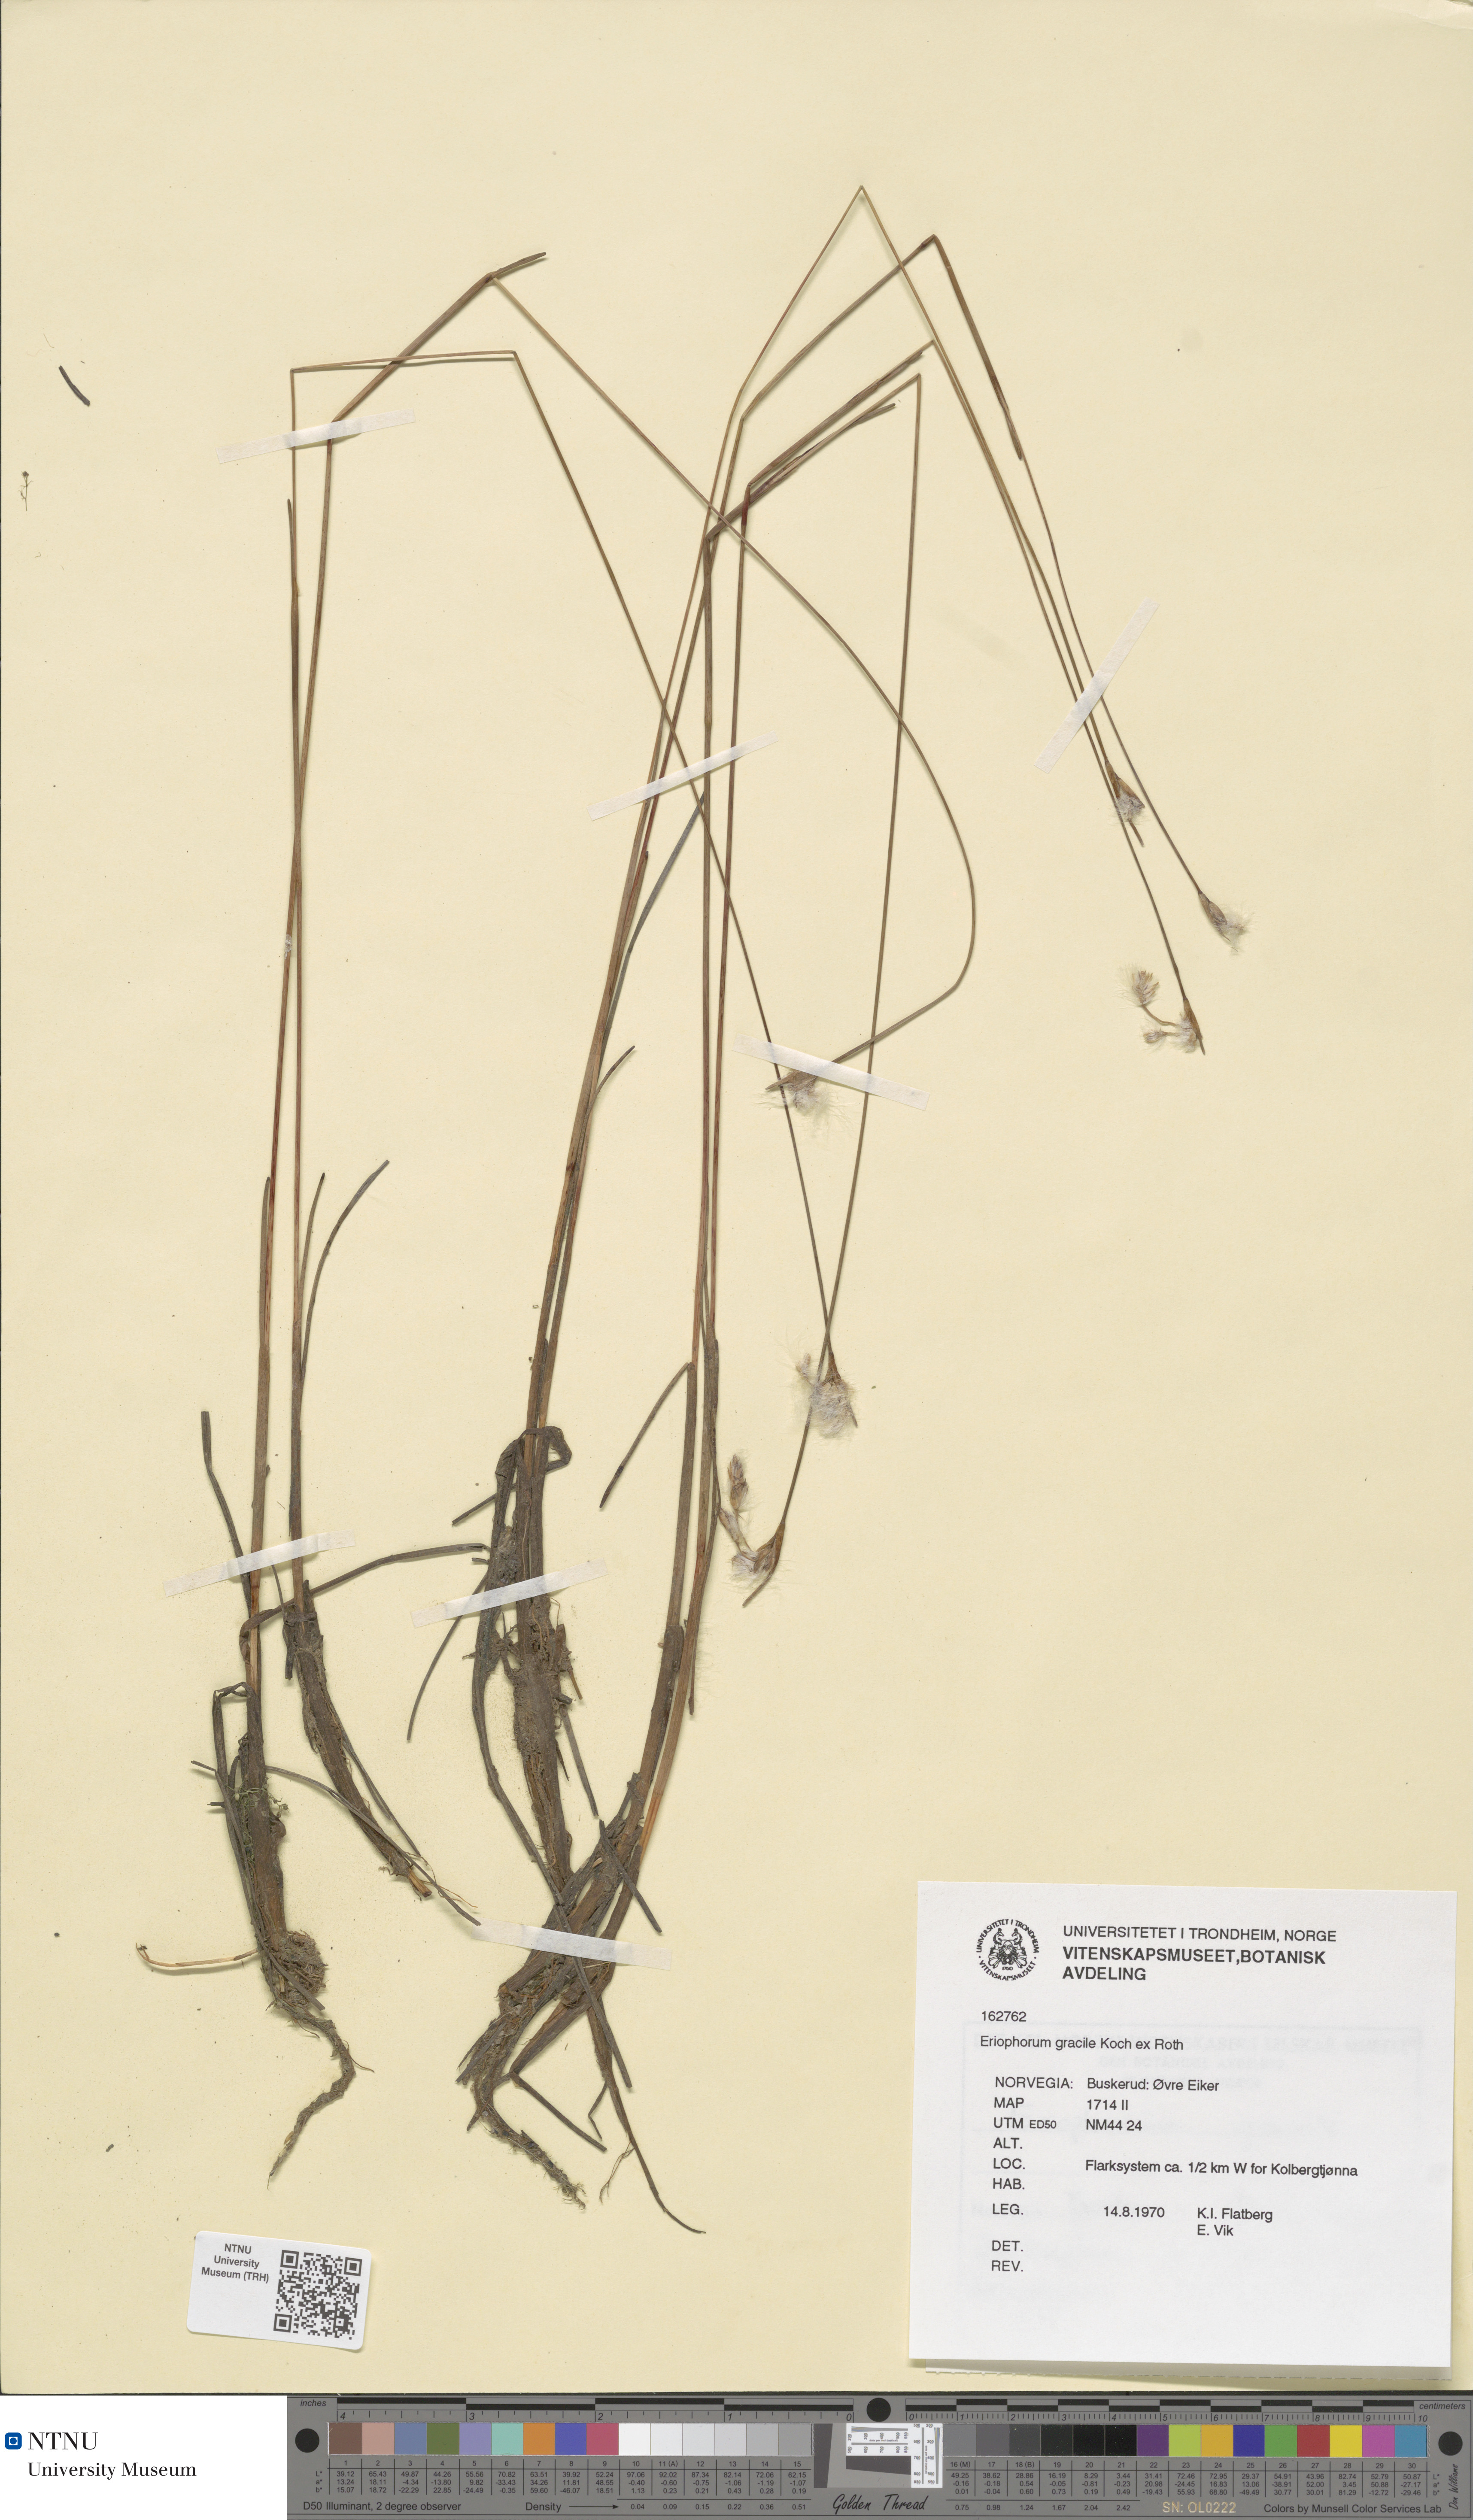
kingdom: Plantae
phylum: Tracheophyta
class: Liliopsida
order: Poales
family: Cyperaceae
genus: Eriophorum
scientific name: Eriophorum gracile
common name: Slender cottongrass
